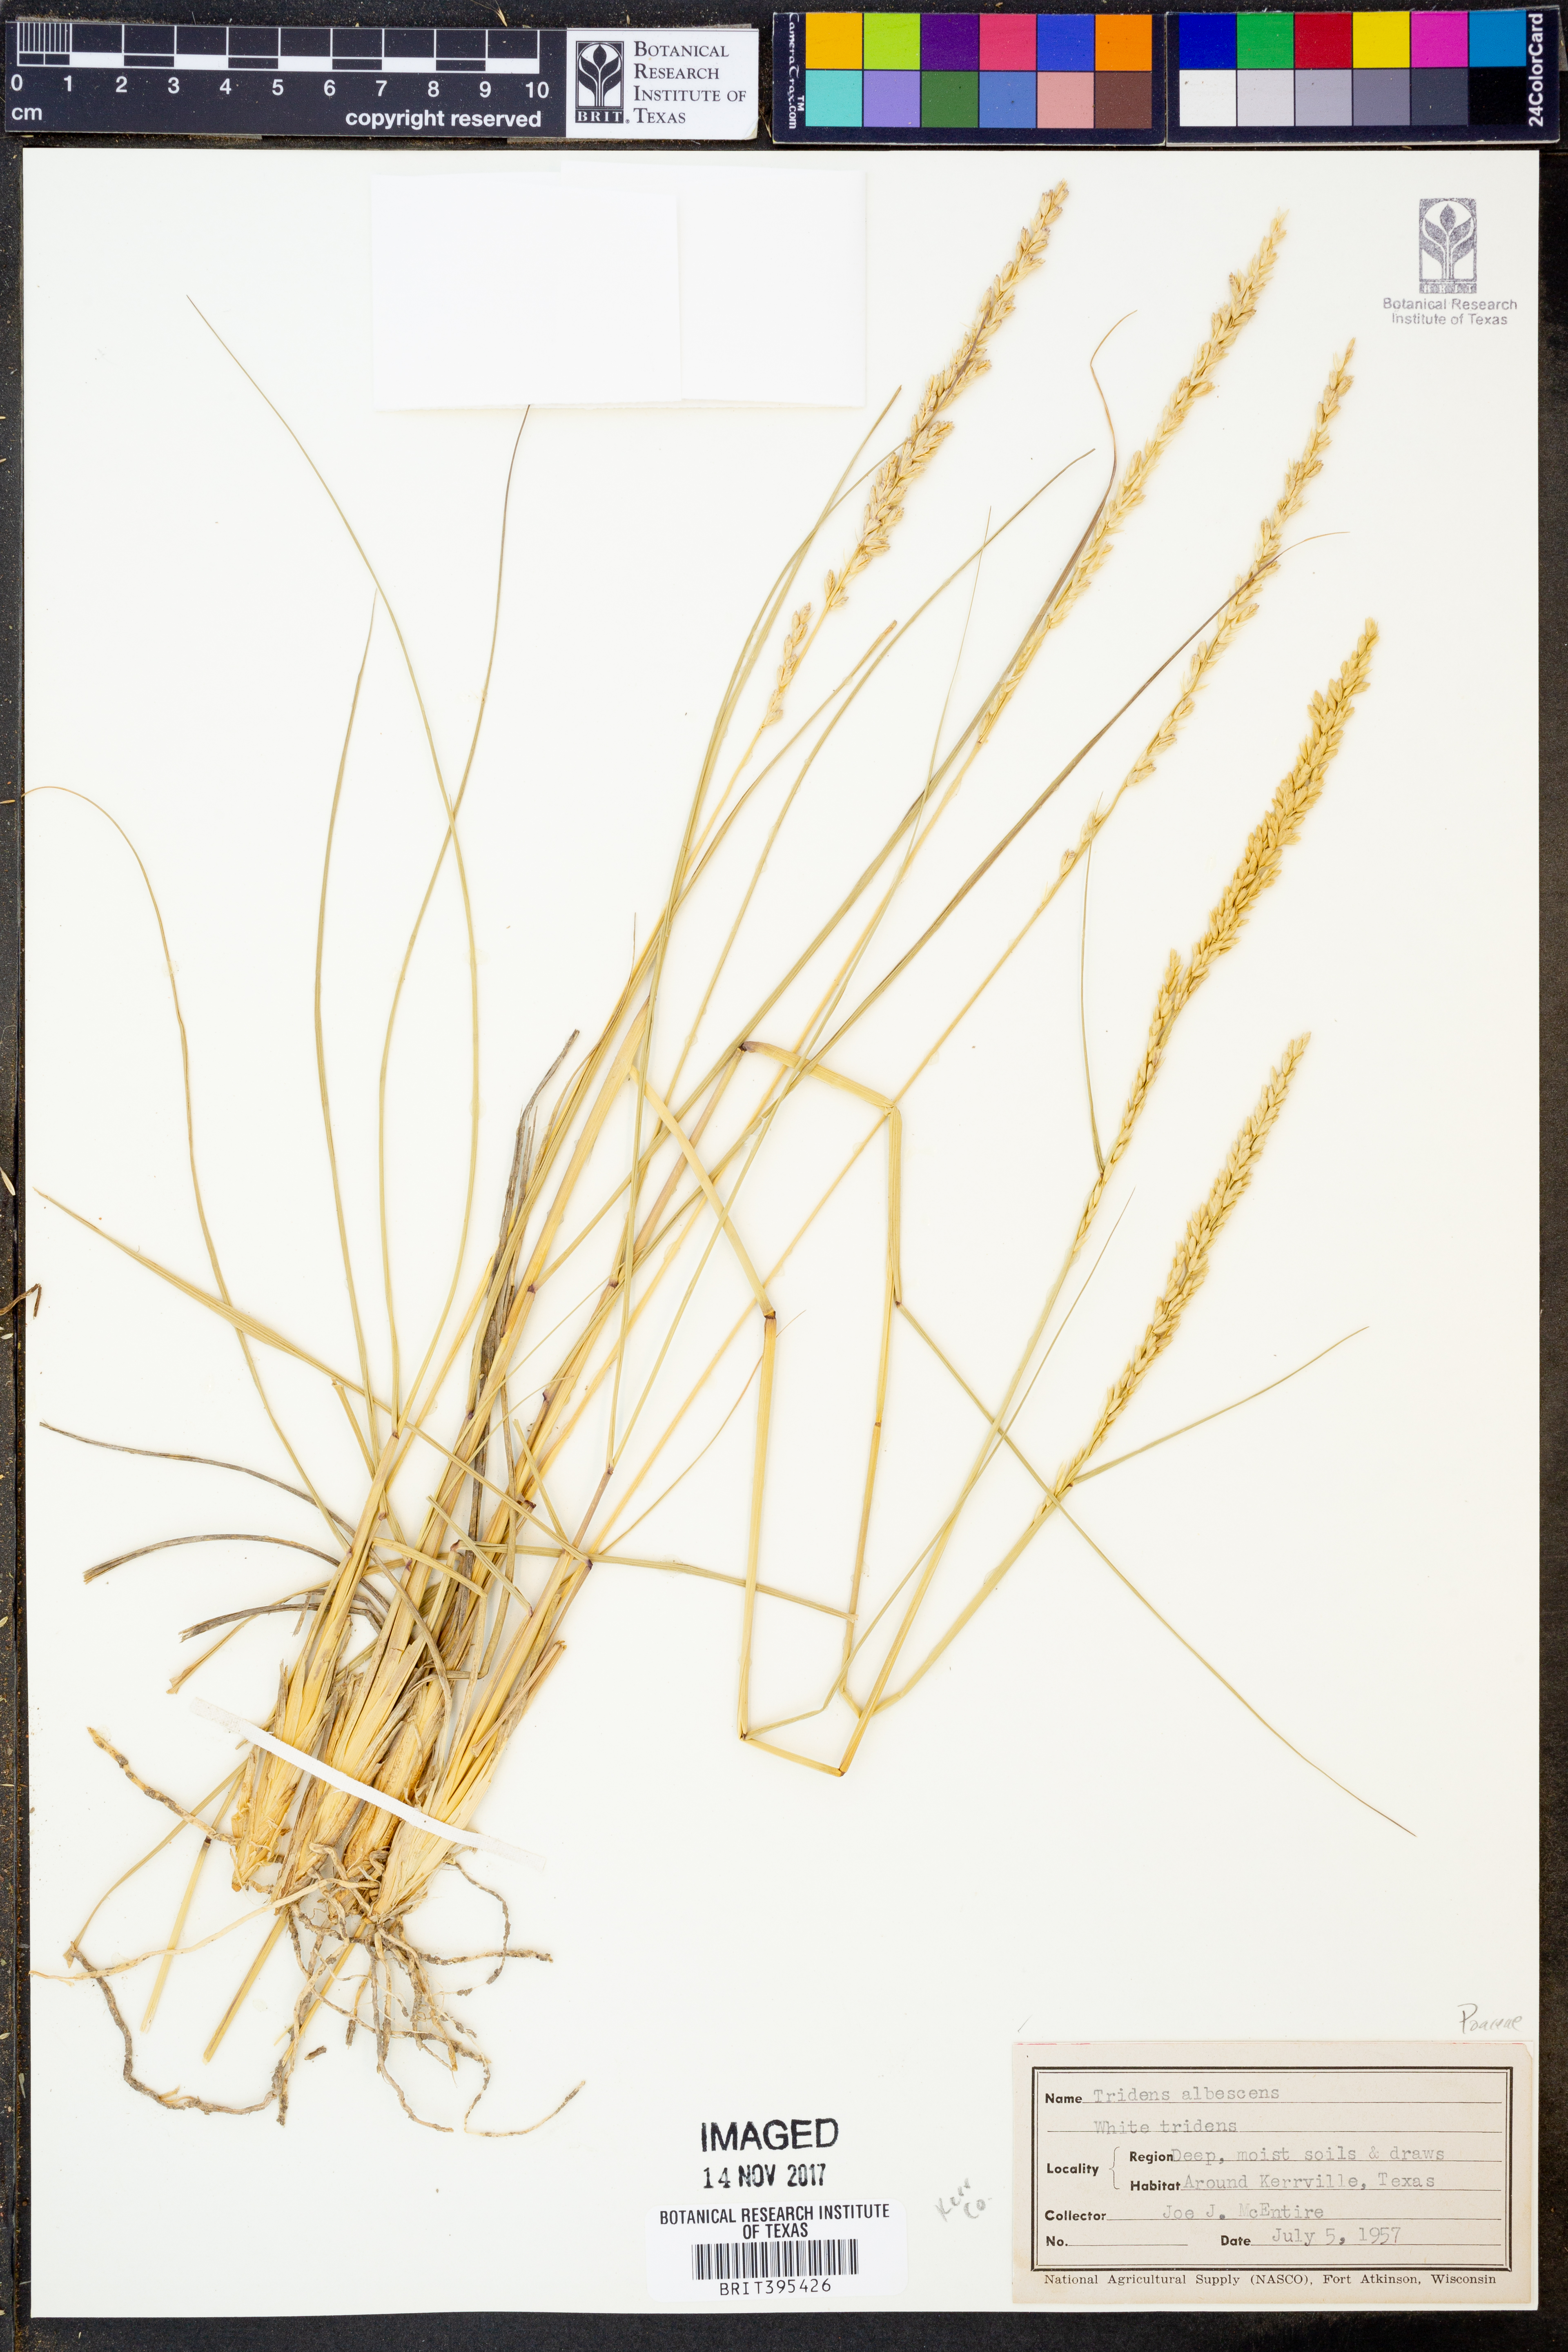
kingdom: Plantae
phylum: Tracheophyta
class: Liliopsida
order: Poales
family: Poaceae
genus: Tridens
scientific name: Tridens albescens
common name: White tridens
